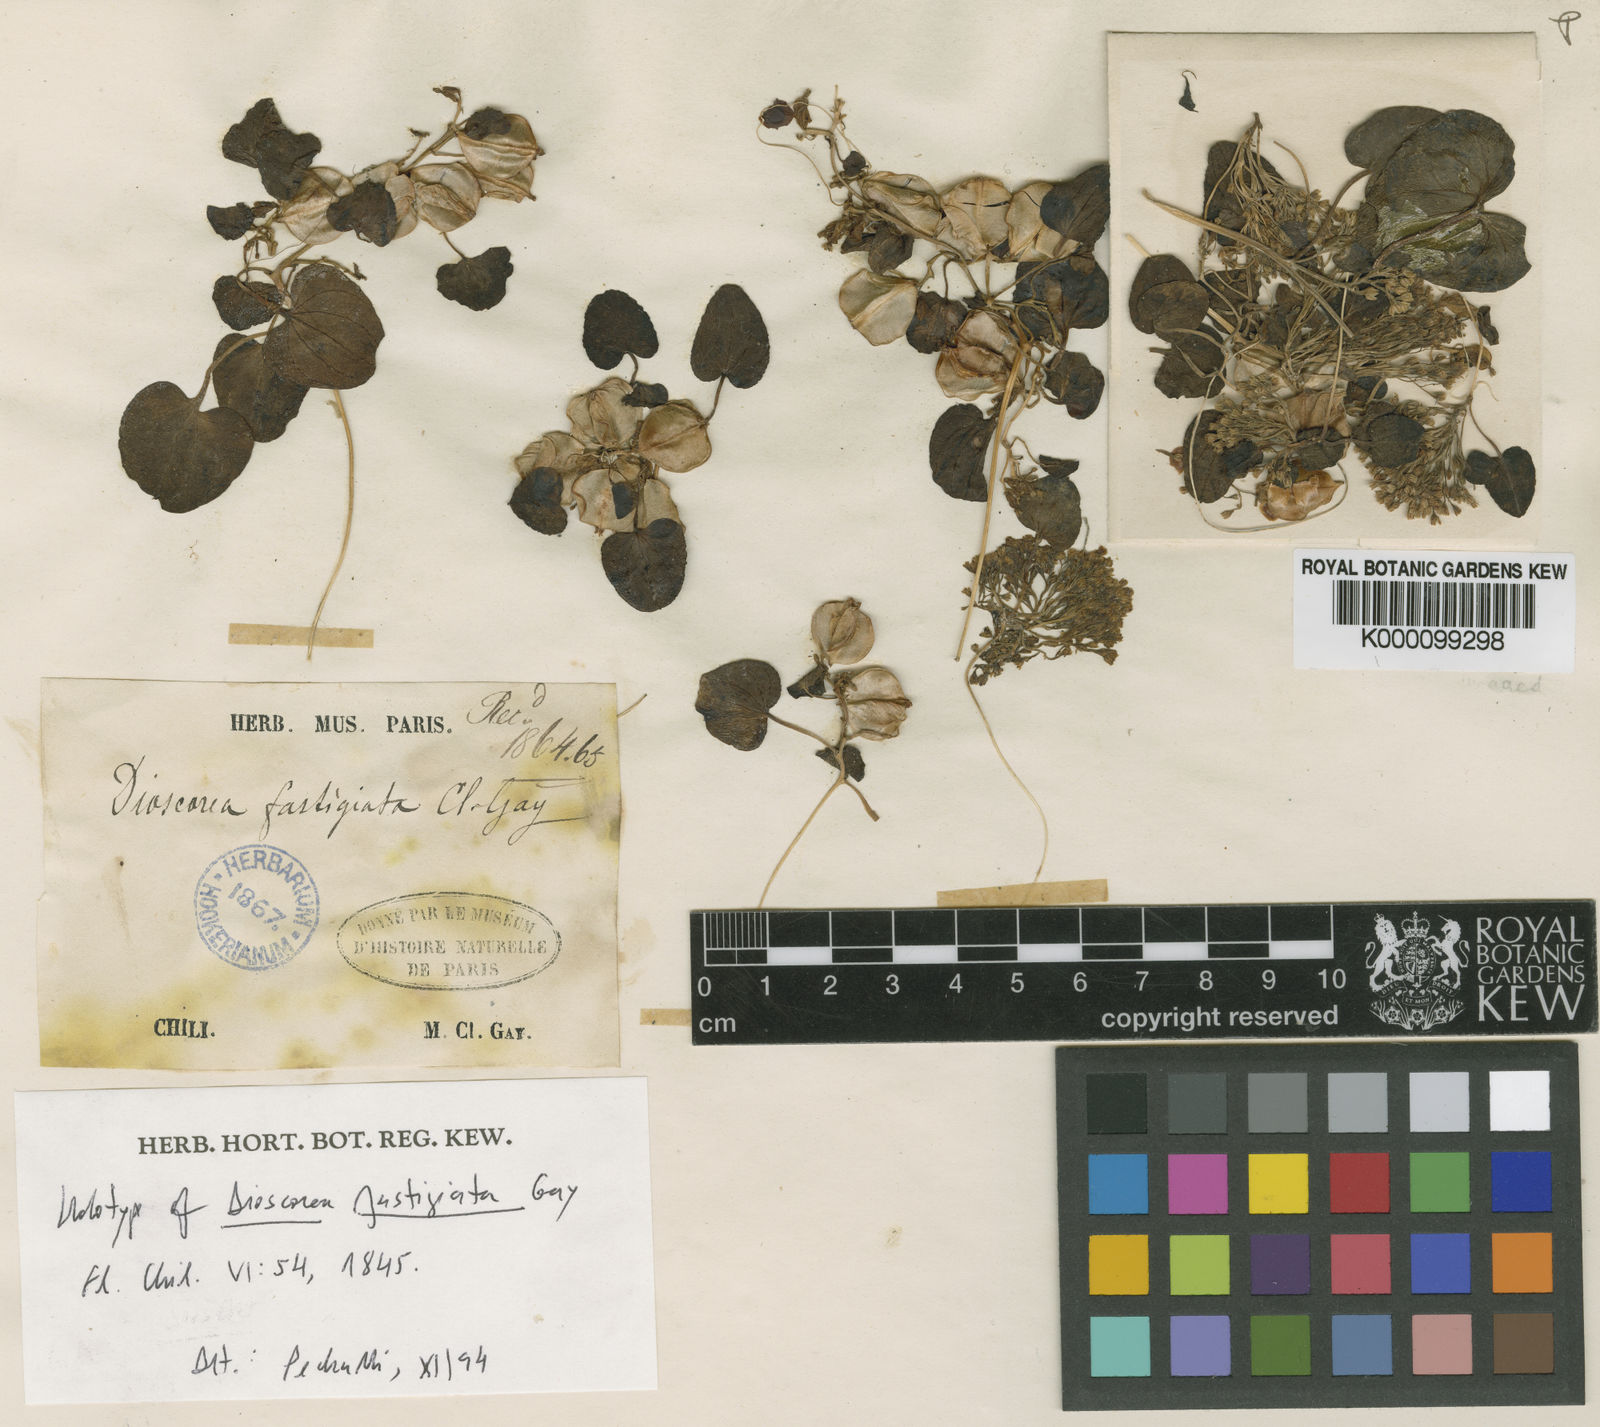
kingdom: Plantae
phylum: Tracheophyta
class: Liliopsida
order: Dioscoreales
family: Dioscoreaceae
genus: Dioscorea
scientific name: Dioscorea fastigiata
